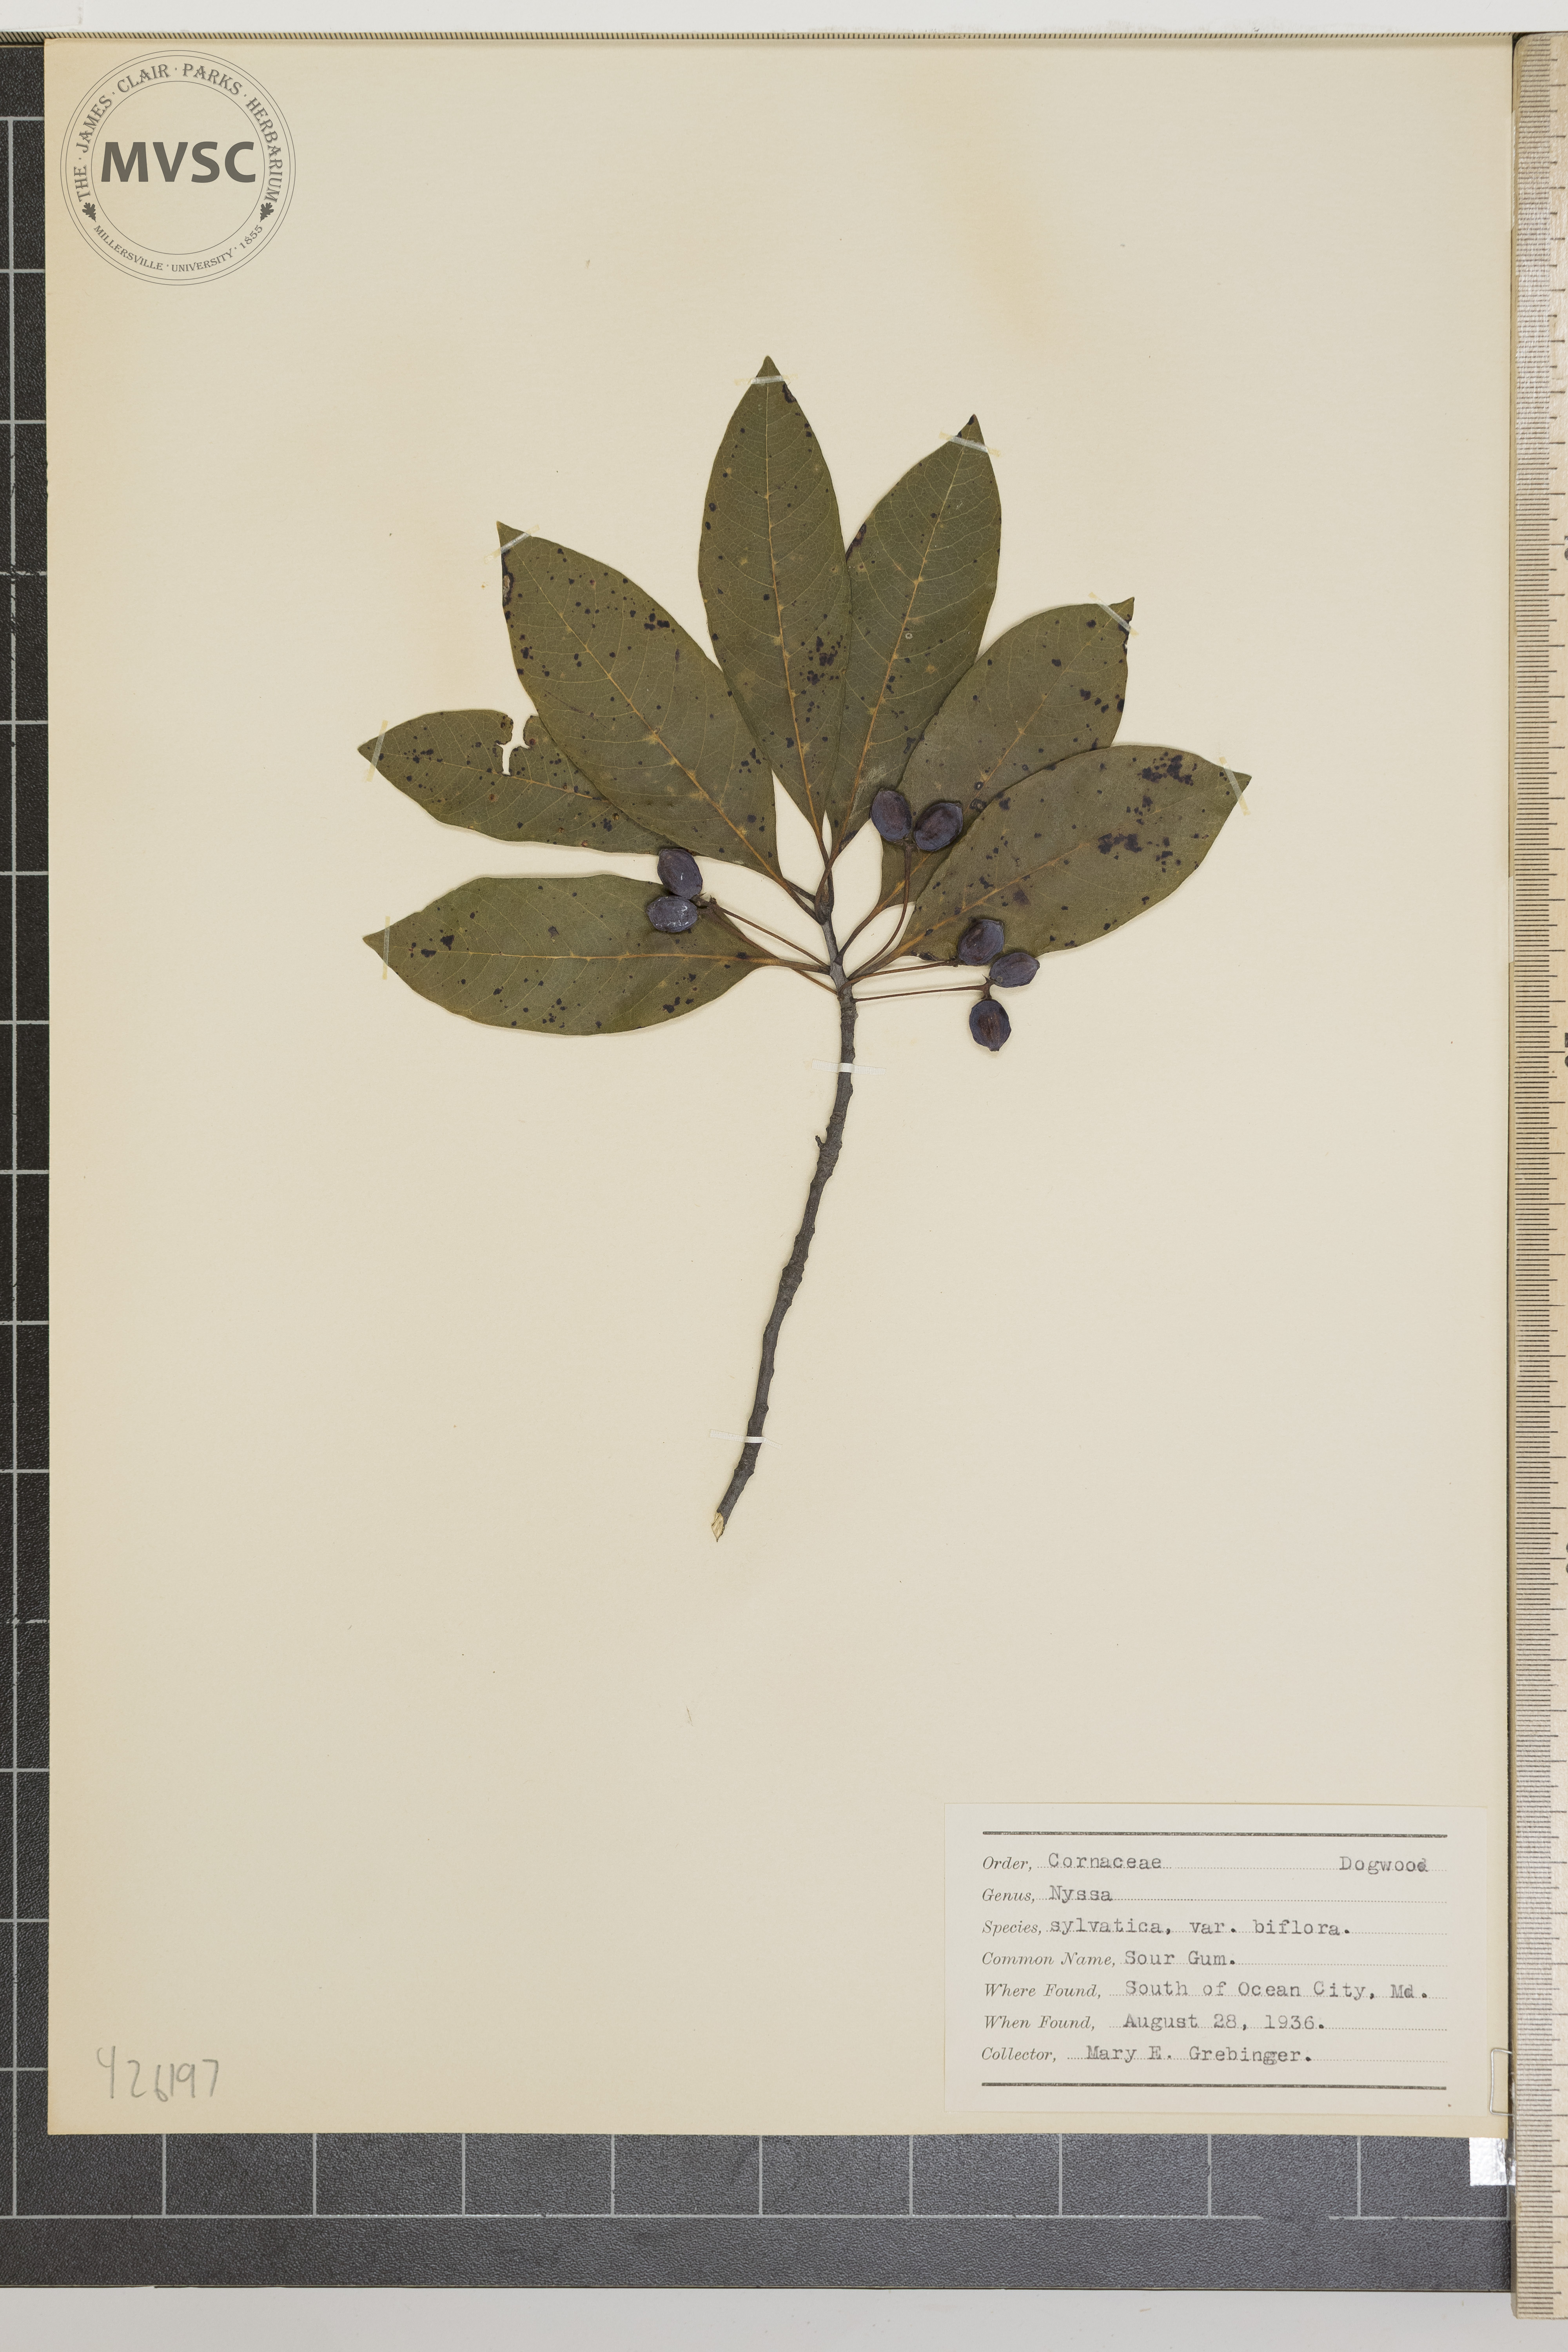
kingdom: Plantae
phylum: Tracheophyta
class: Magnoliopsida
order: Cornales
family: Nyssaceae
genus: Nyssa
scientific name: Nyssa sylvatica
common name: Sour gum
